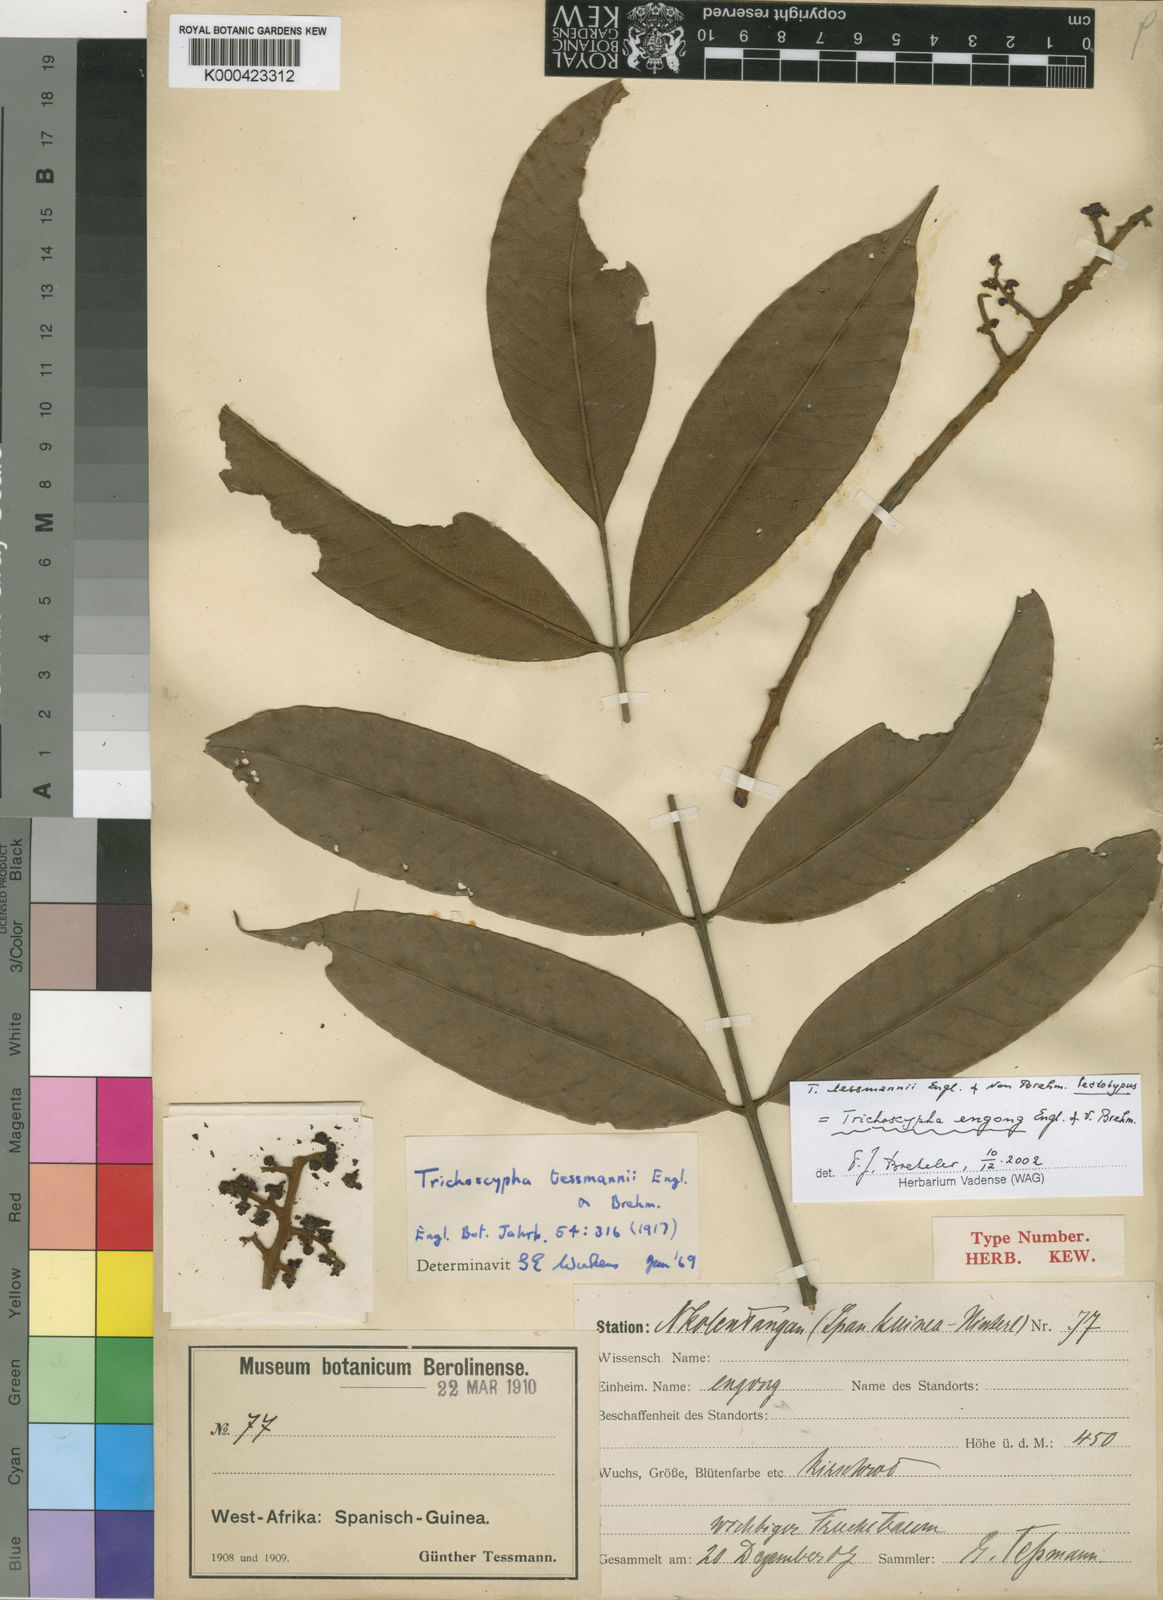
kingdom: Plantae
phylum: Tracheophyta
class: Magnoliopsida
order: Sapindales
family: Anacardiaceae
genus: Trichoscypha
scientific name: Trichoscypha
